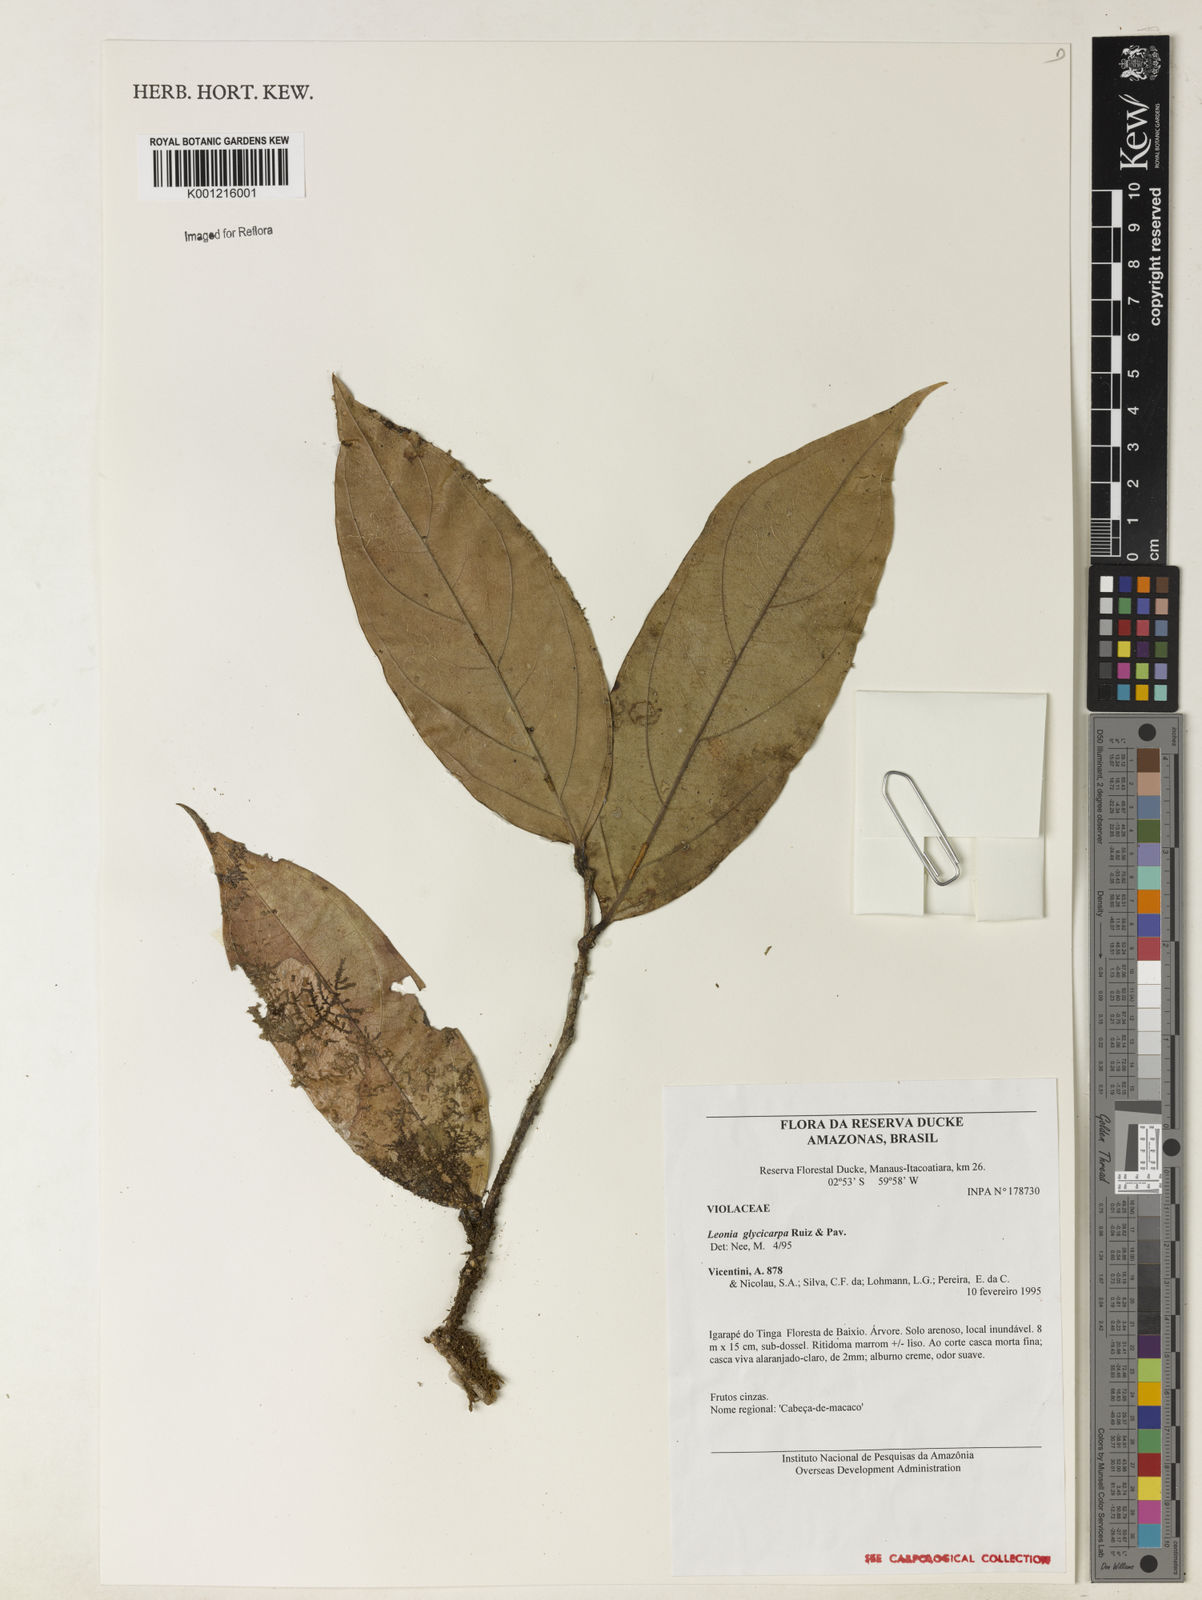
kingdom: Plantae
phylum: Tracheophyta
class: Magnoliopsida
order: Malpighiales
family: Violaceae
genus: Leonia
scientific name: Leonia glycycarpa
